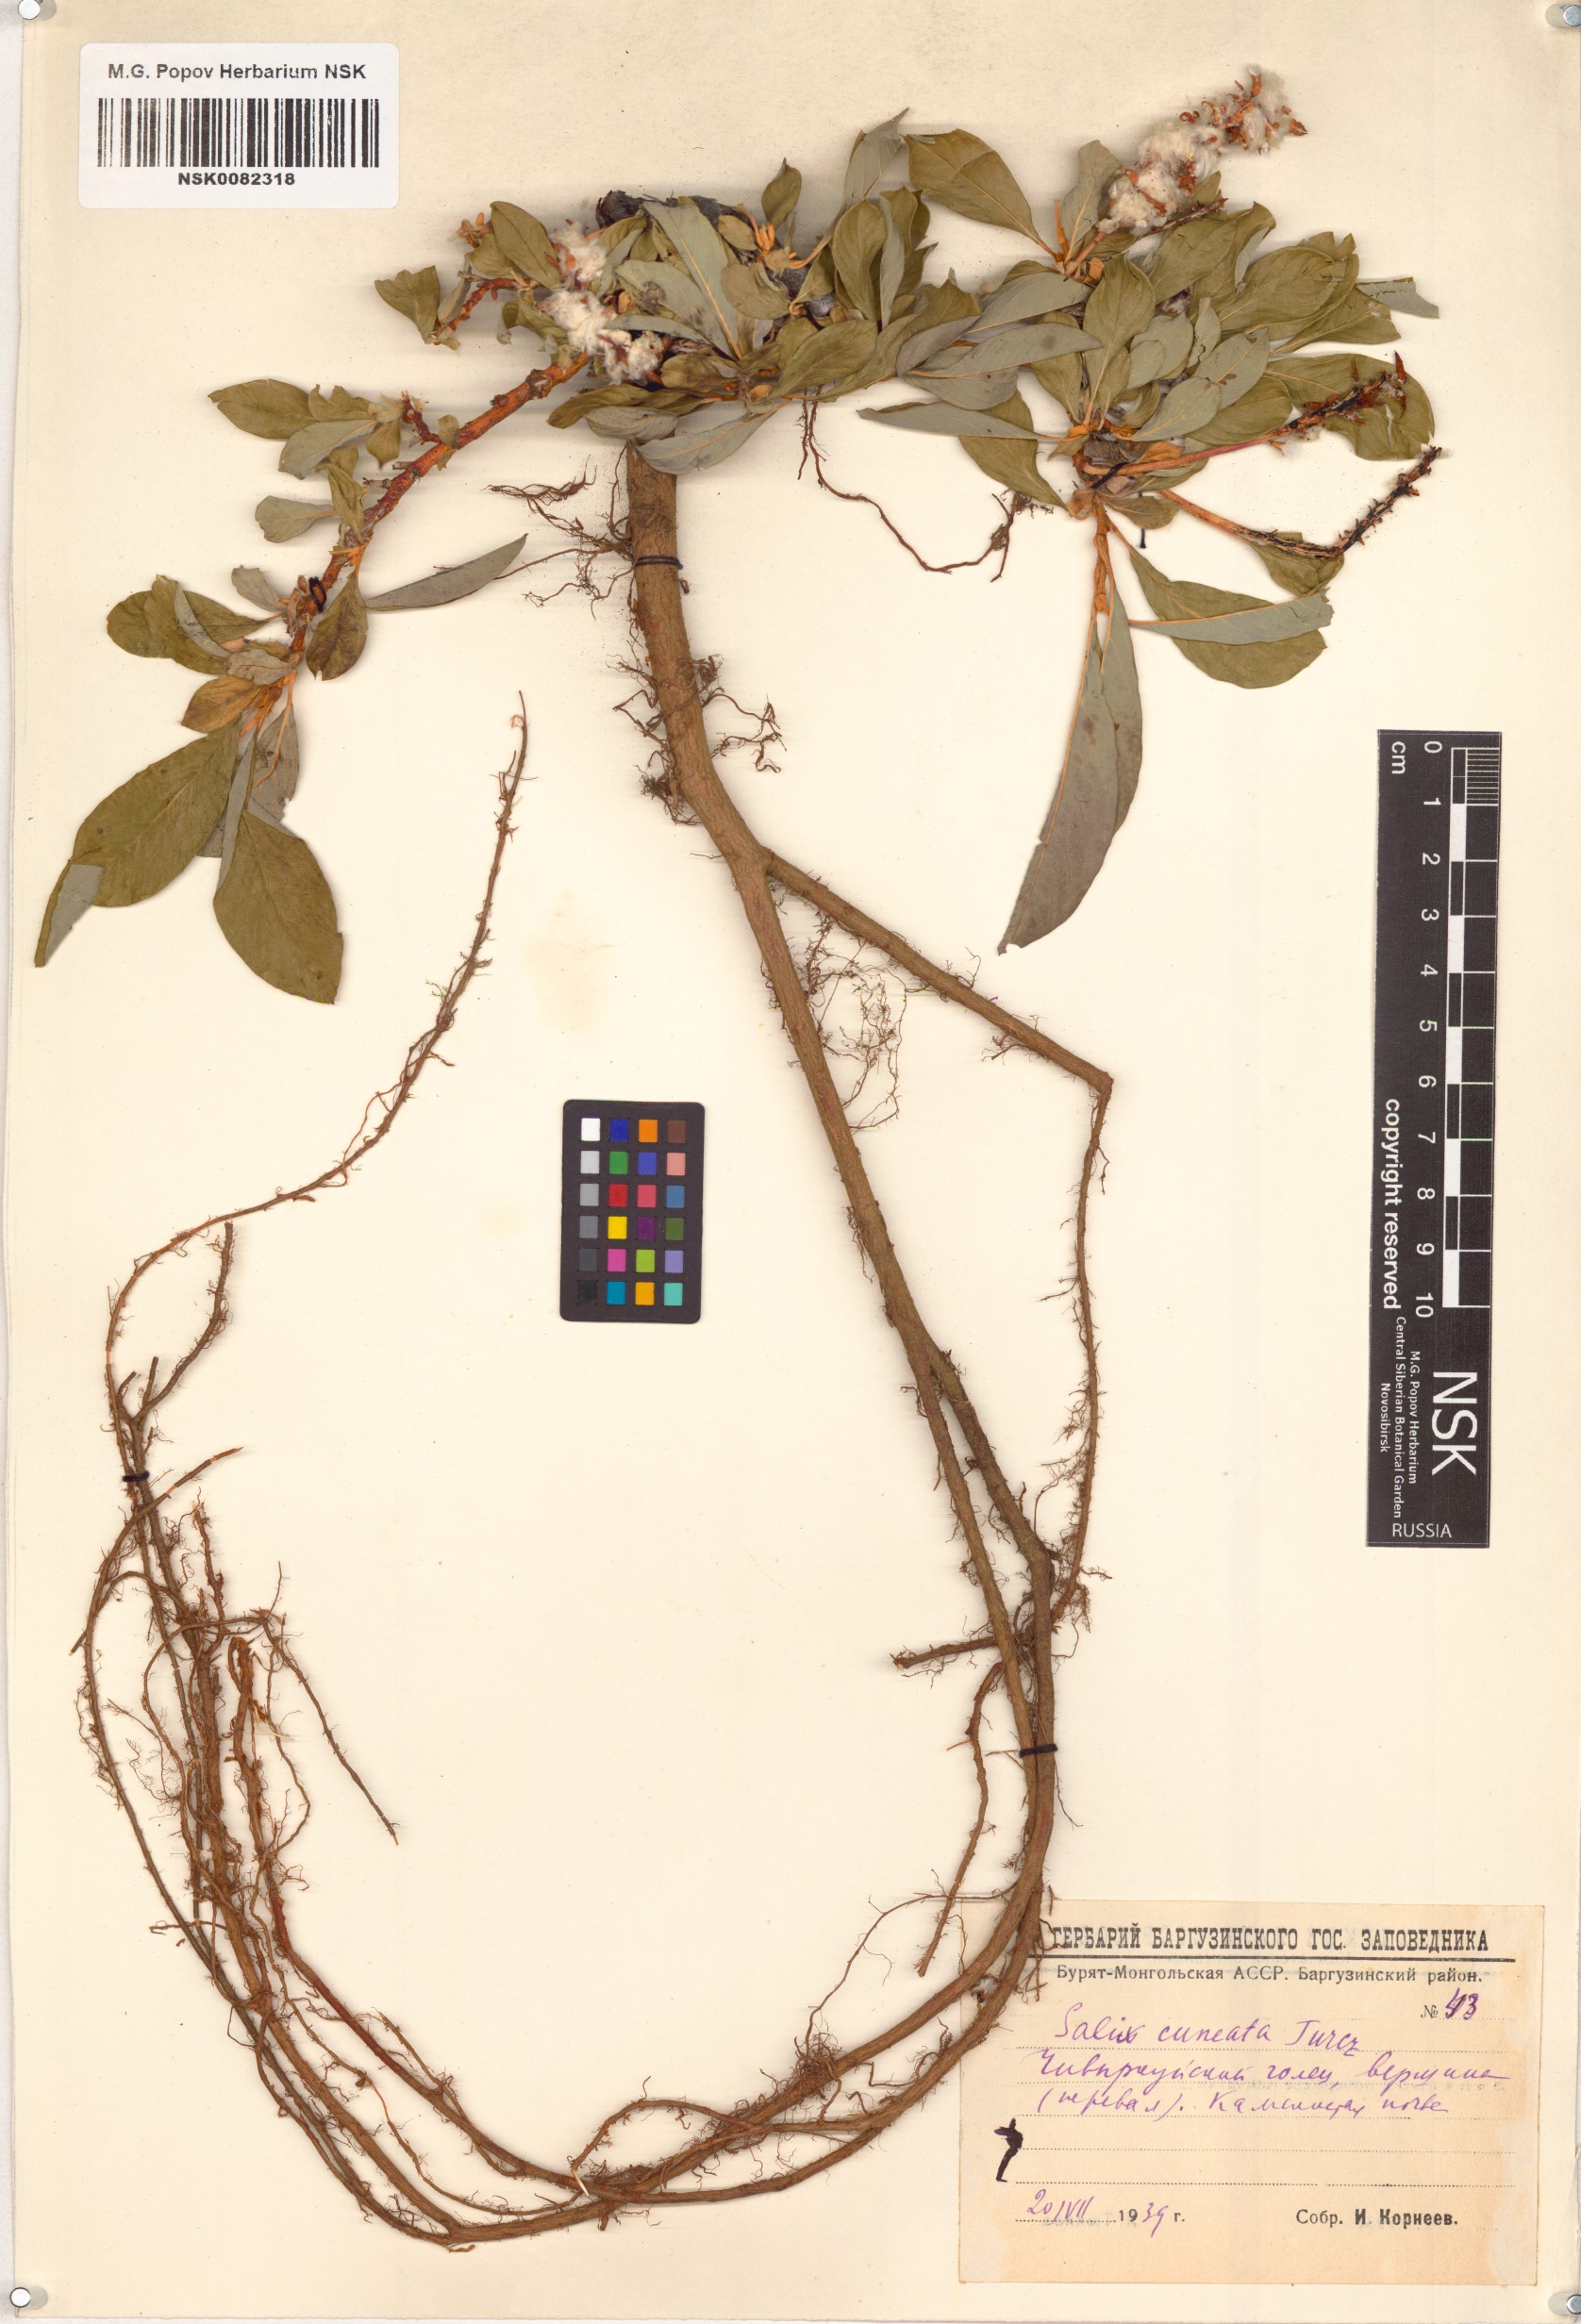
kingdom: Plantae
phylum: Tracheophyta
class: Magnoliopsida
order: Malpighiales
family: Salicaceae
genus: Salix
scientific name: Salix sphenophylla
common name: Wedge-leaved willow
